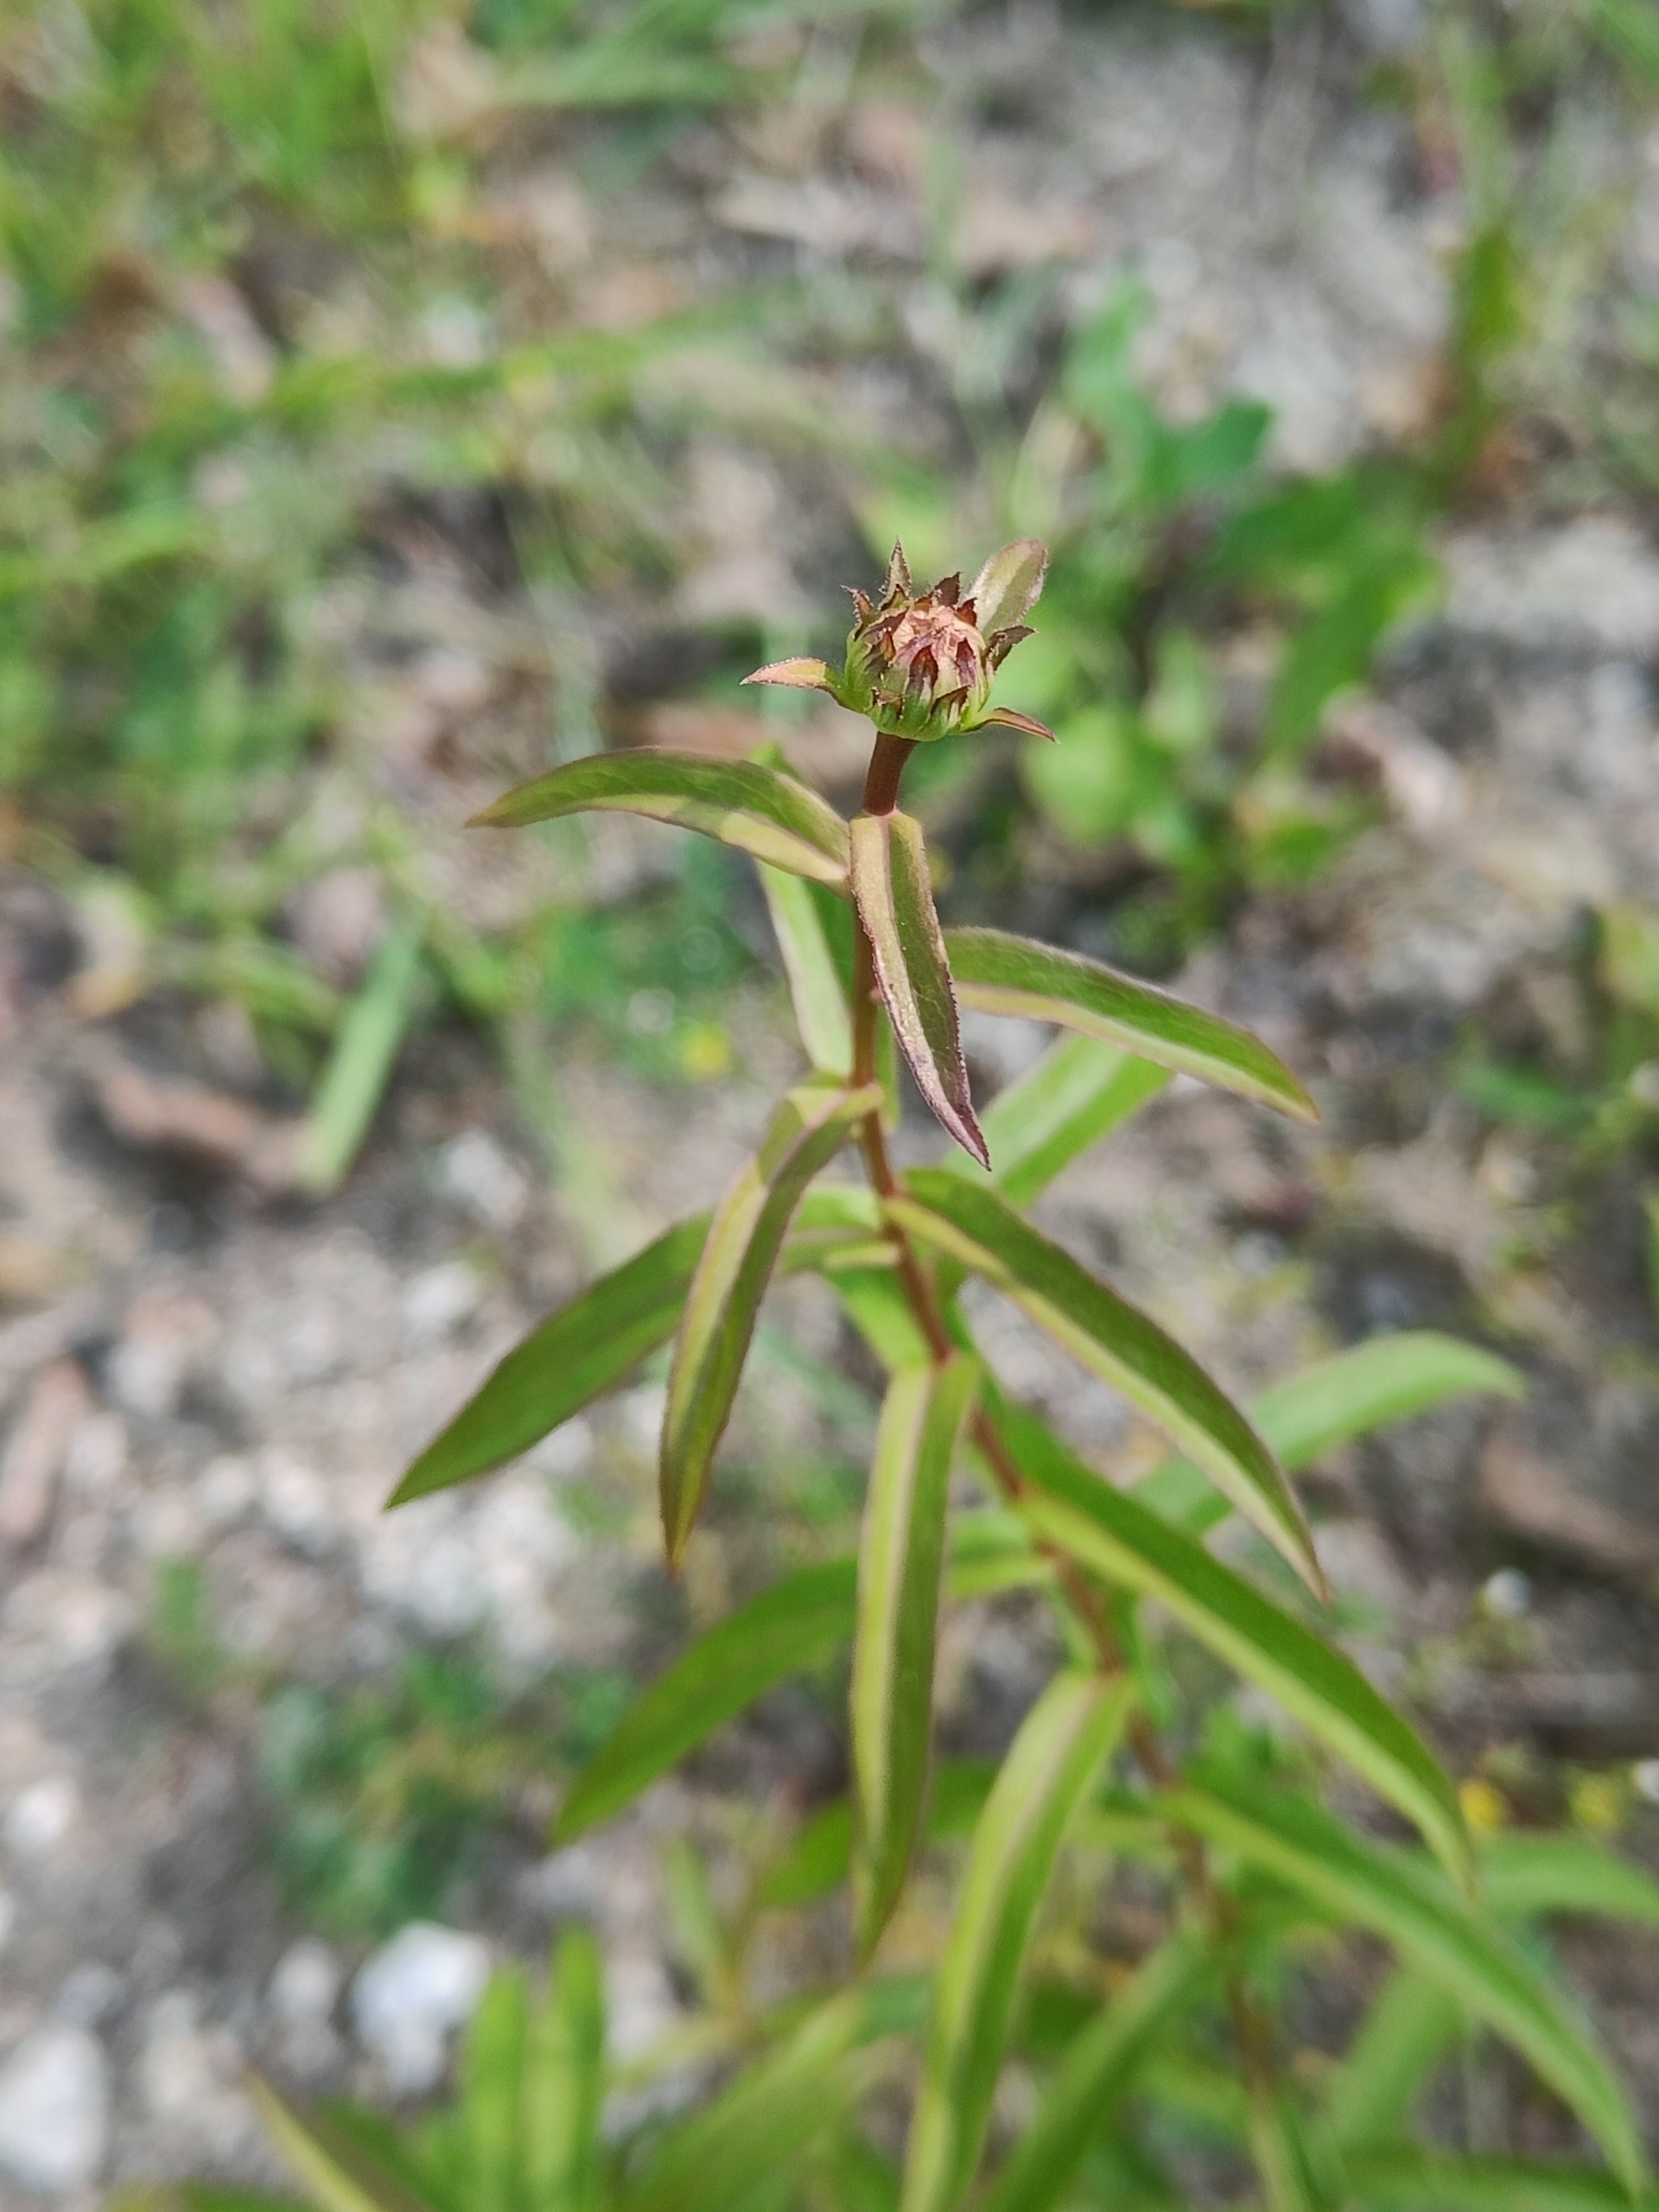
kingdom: Plantae
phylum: Tracheophyta
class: Magnoliopsida
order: Asterales
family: Asteraceae
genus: Pentanema
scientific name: Pentanema salicinum
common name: Pile-alant
